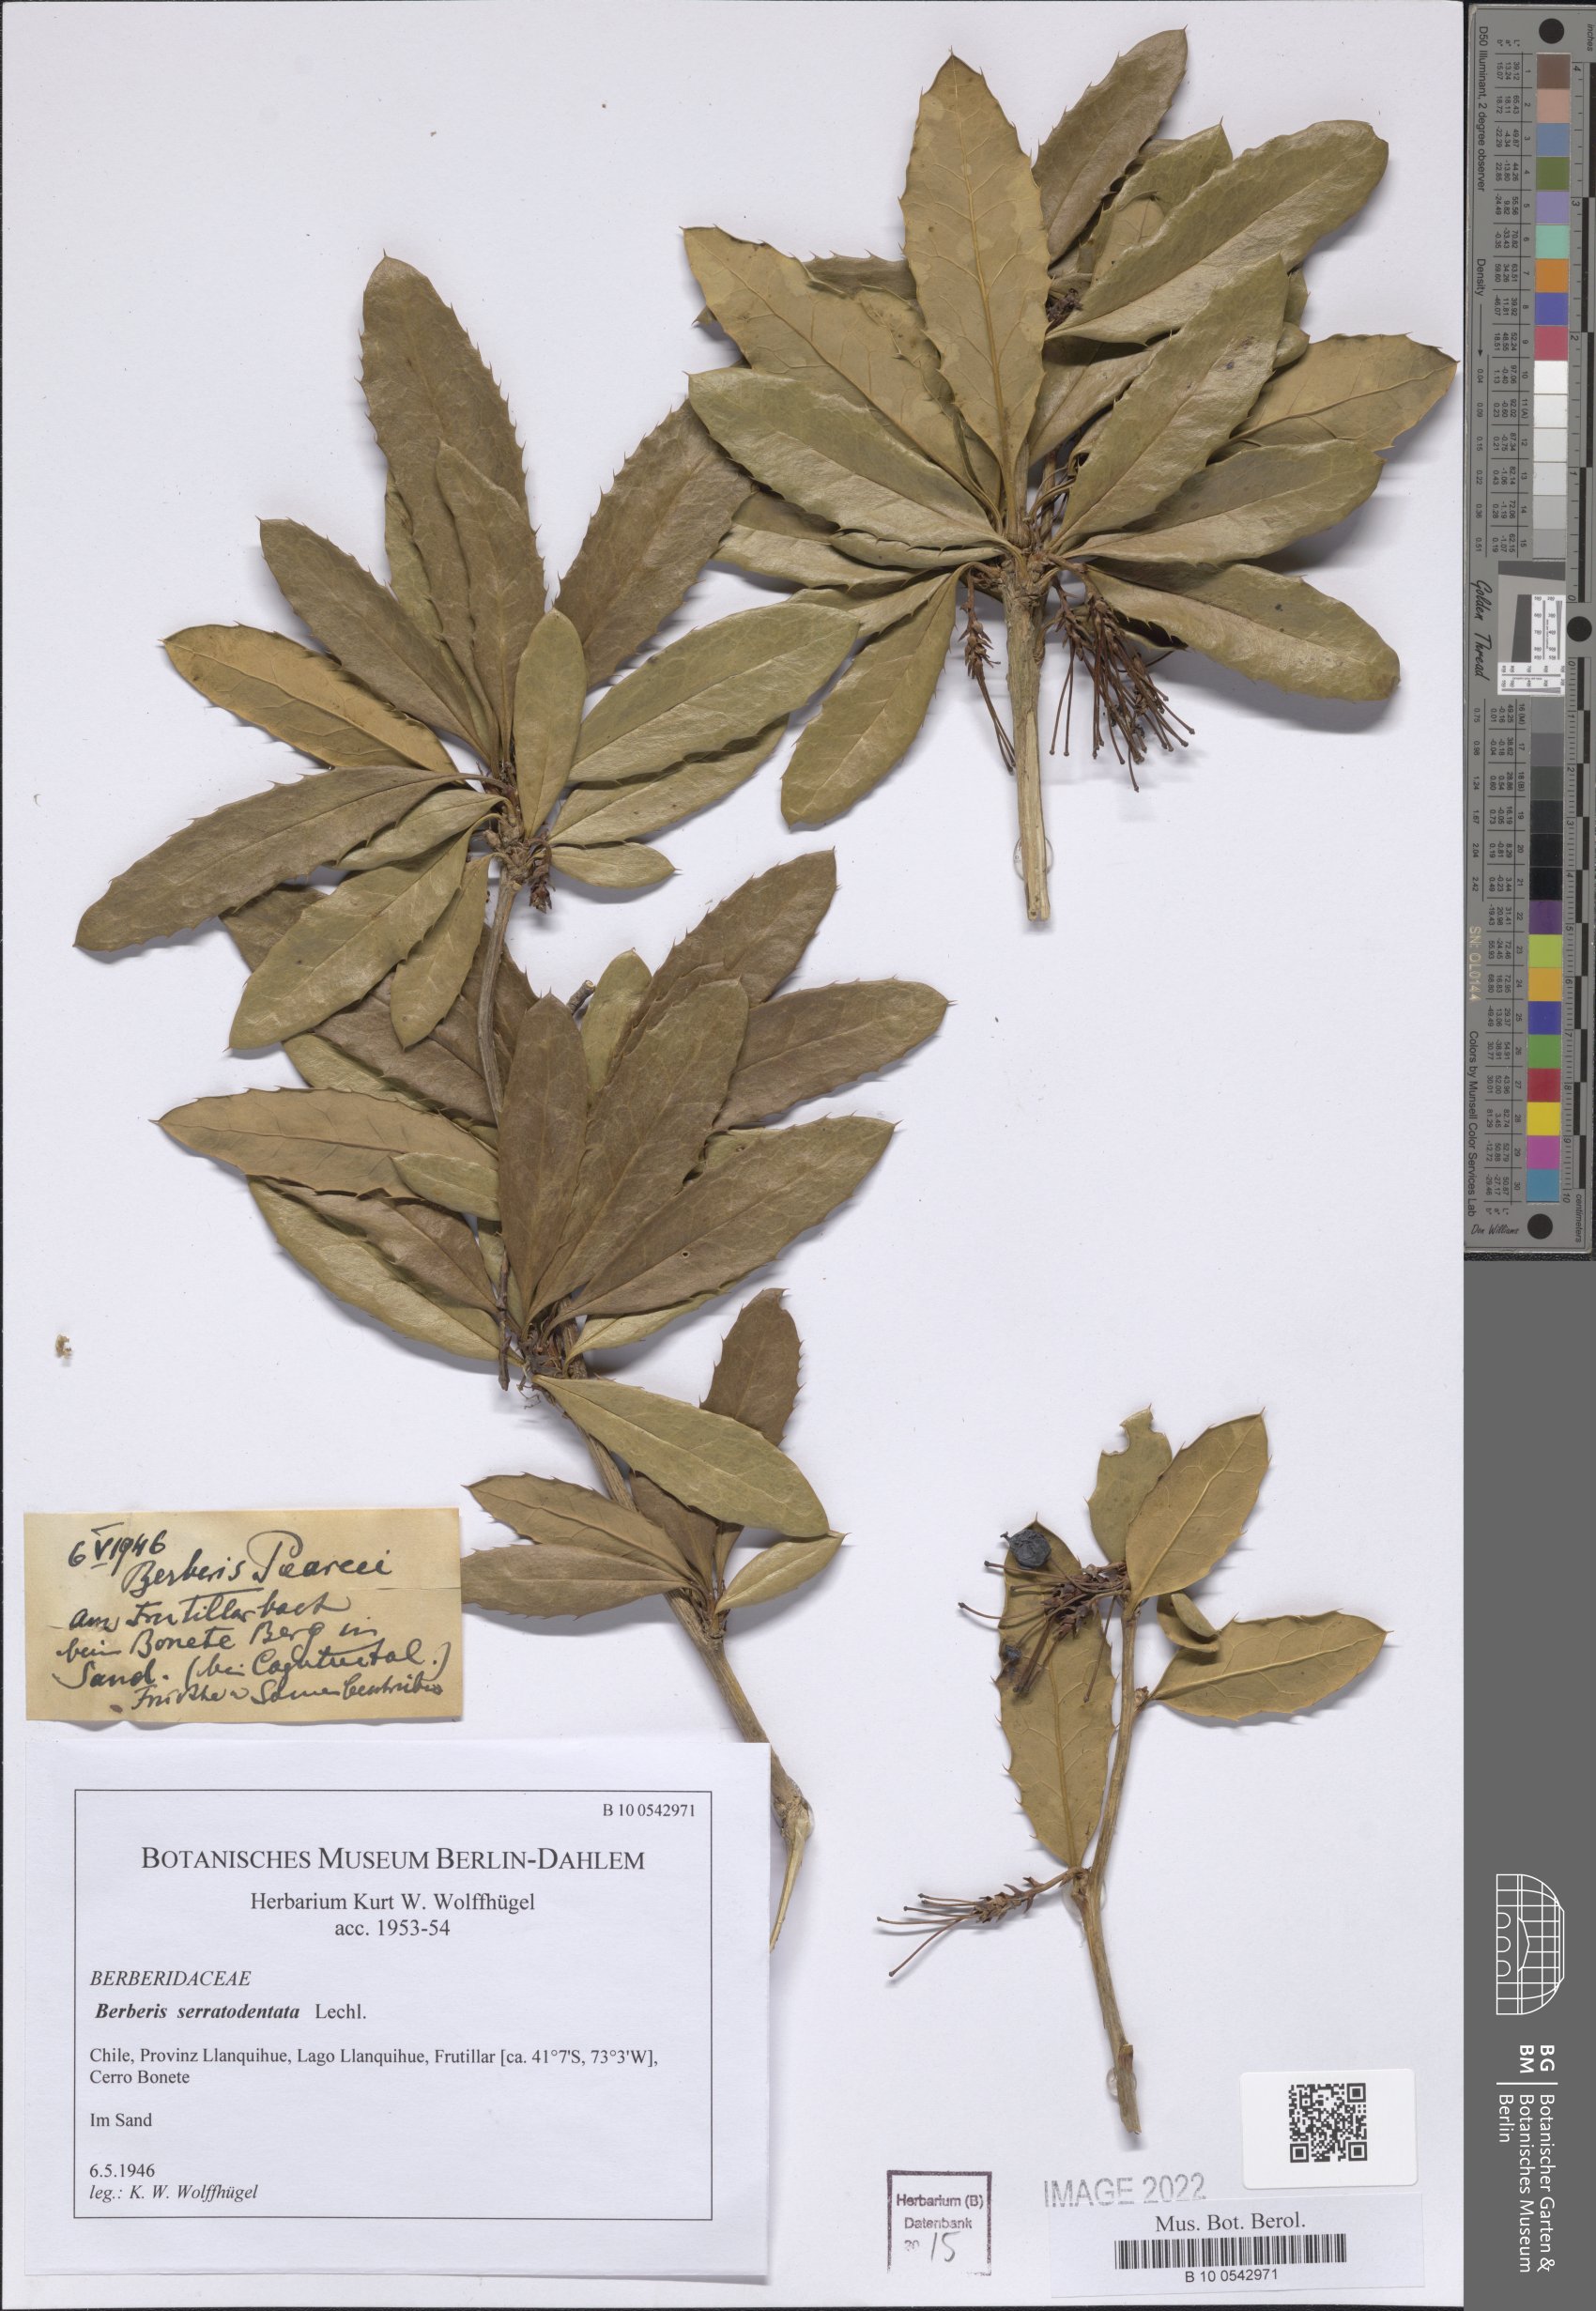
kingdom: Plantae
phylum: Tracheophyta
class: Magnoliopsida
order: Ranunculales
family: Berberidaceae
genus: Berberis
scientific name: Berberis serratodentata
